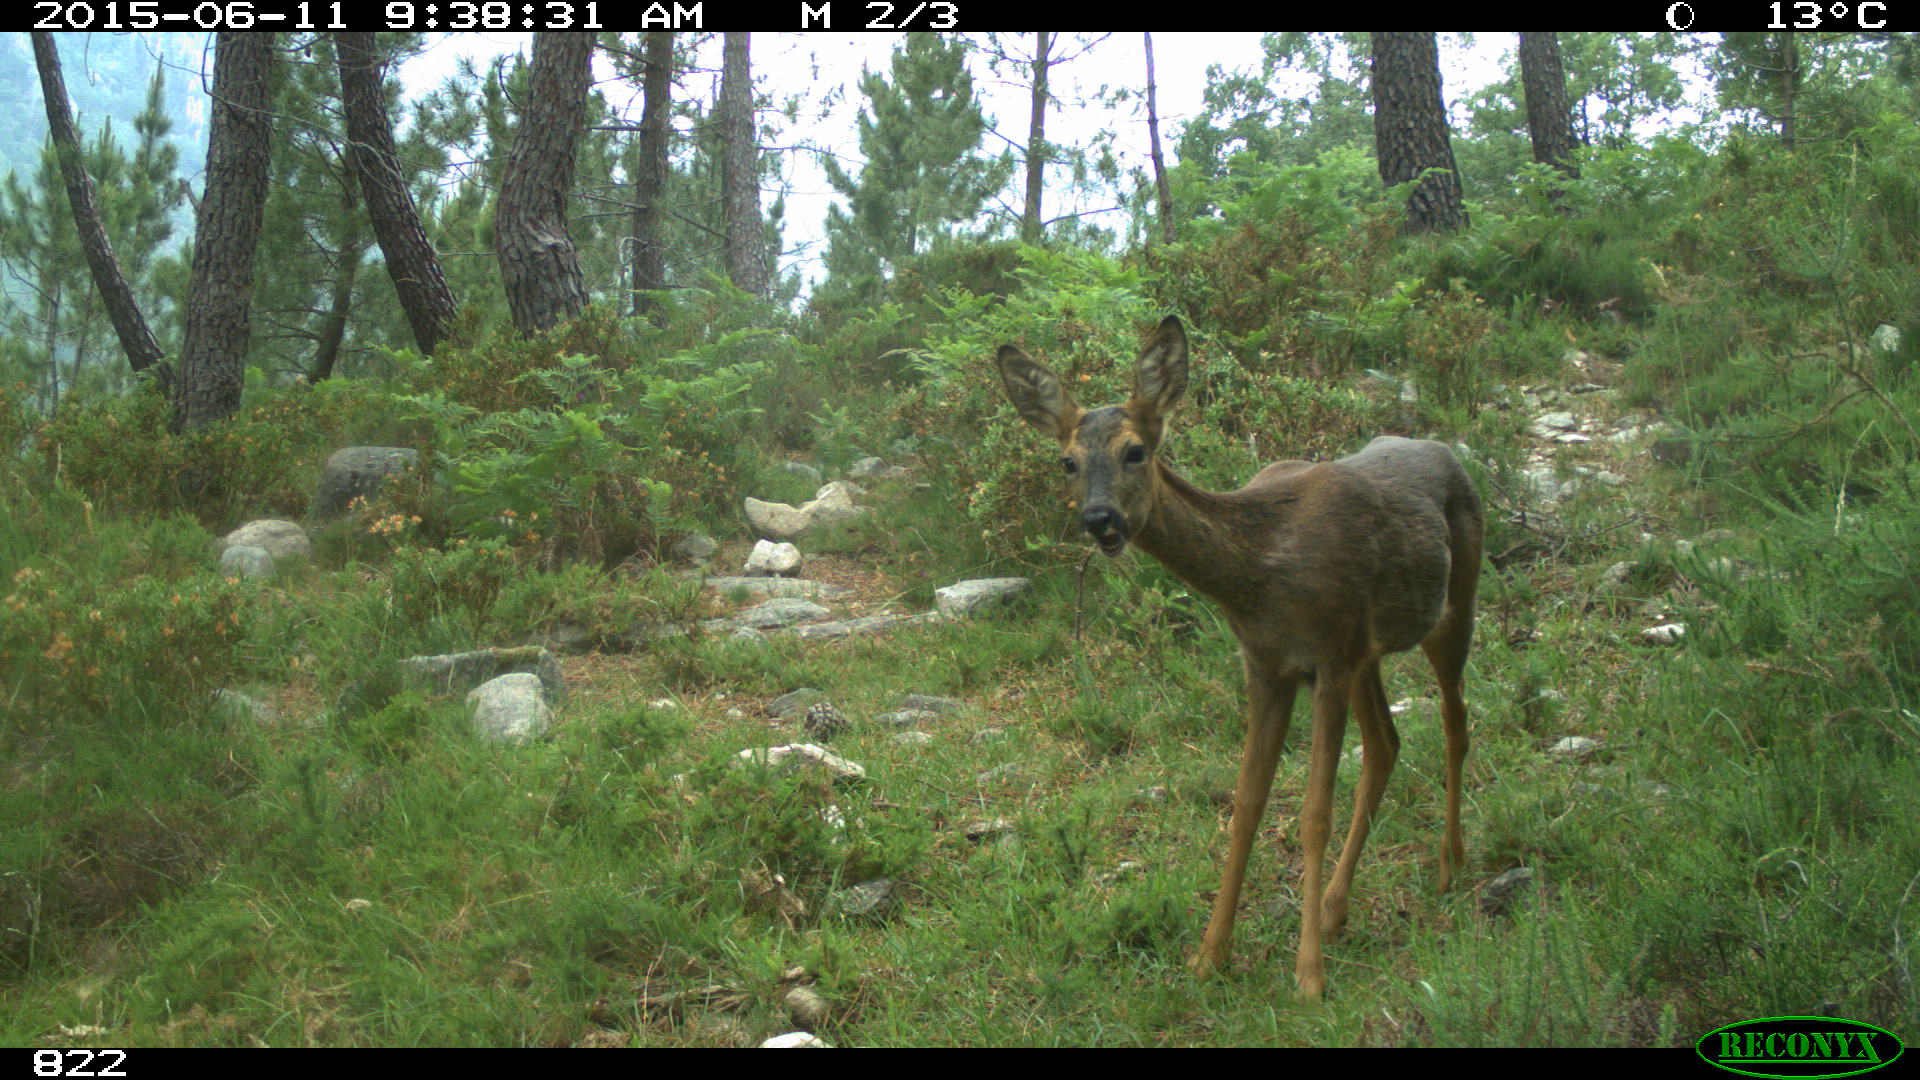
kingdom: Animalia
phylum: Chordata
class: Mammalia
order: Artiodactyla
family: Cervidae
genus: Capreolus
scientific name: Capreolus capreolus
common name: Western roe deer
